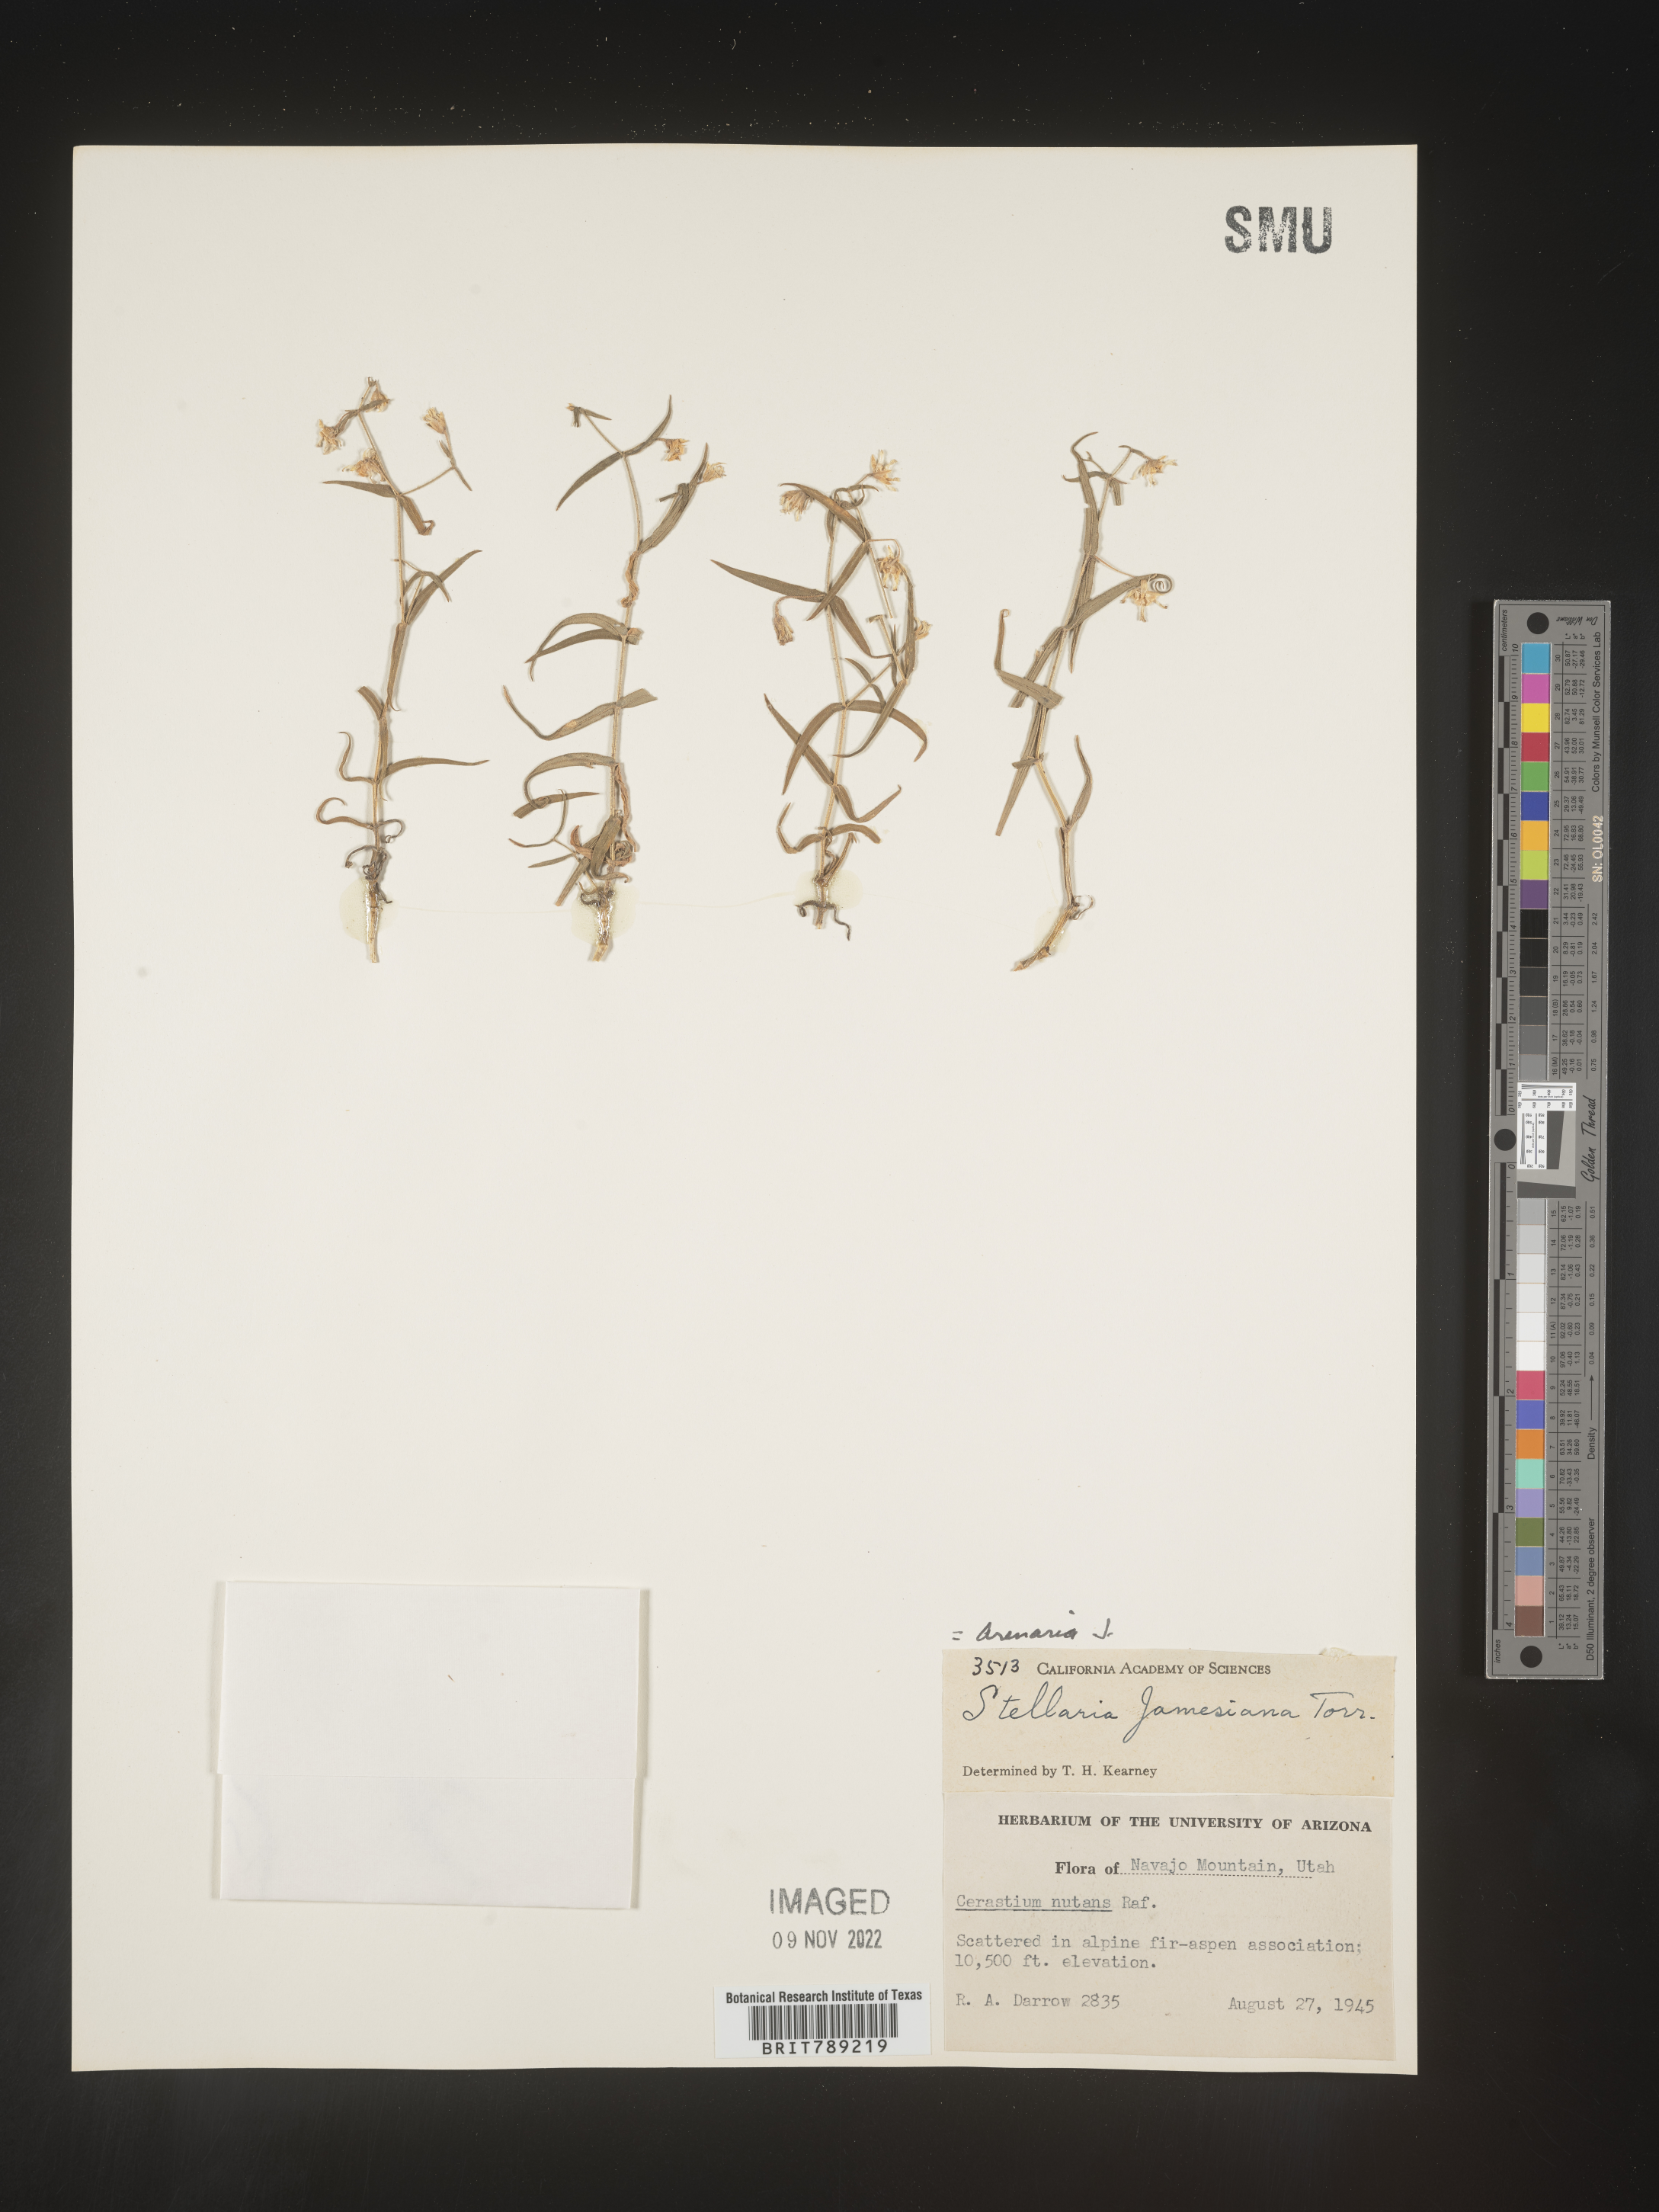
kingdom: Plantae
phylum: Tracheophyta
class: Magnoliopsida
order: Caryophyllales
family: Caryophyllaceae
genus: Arenaria
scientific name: Arenaria
